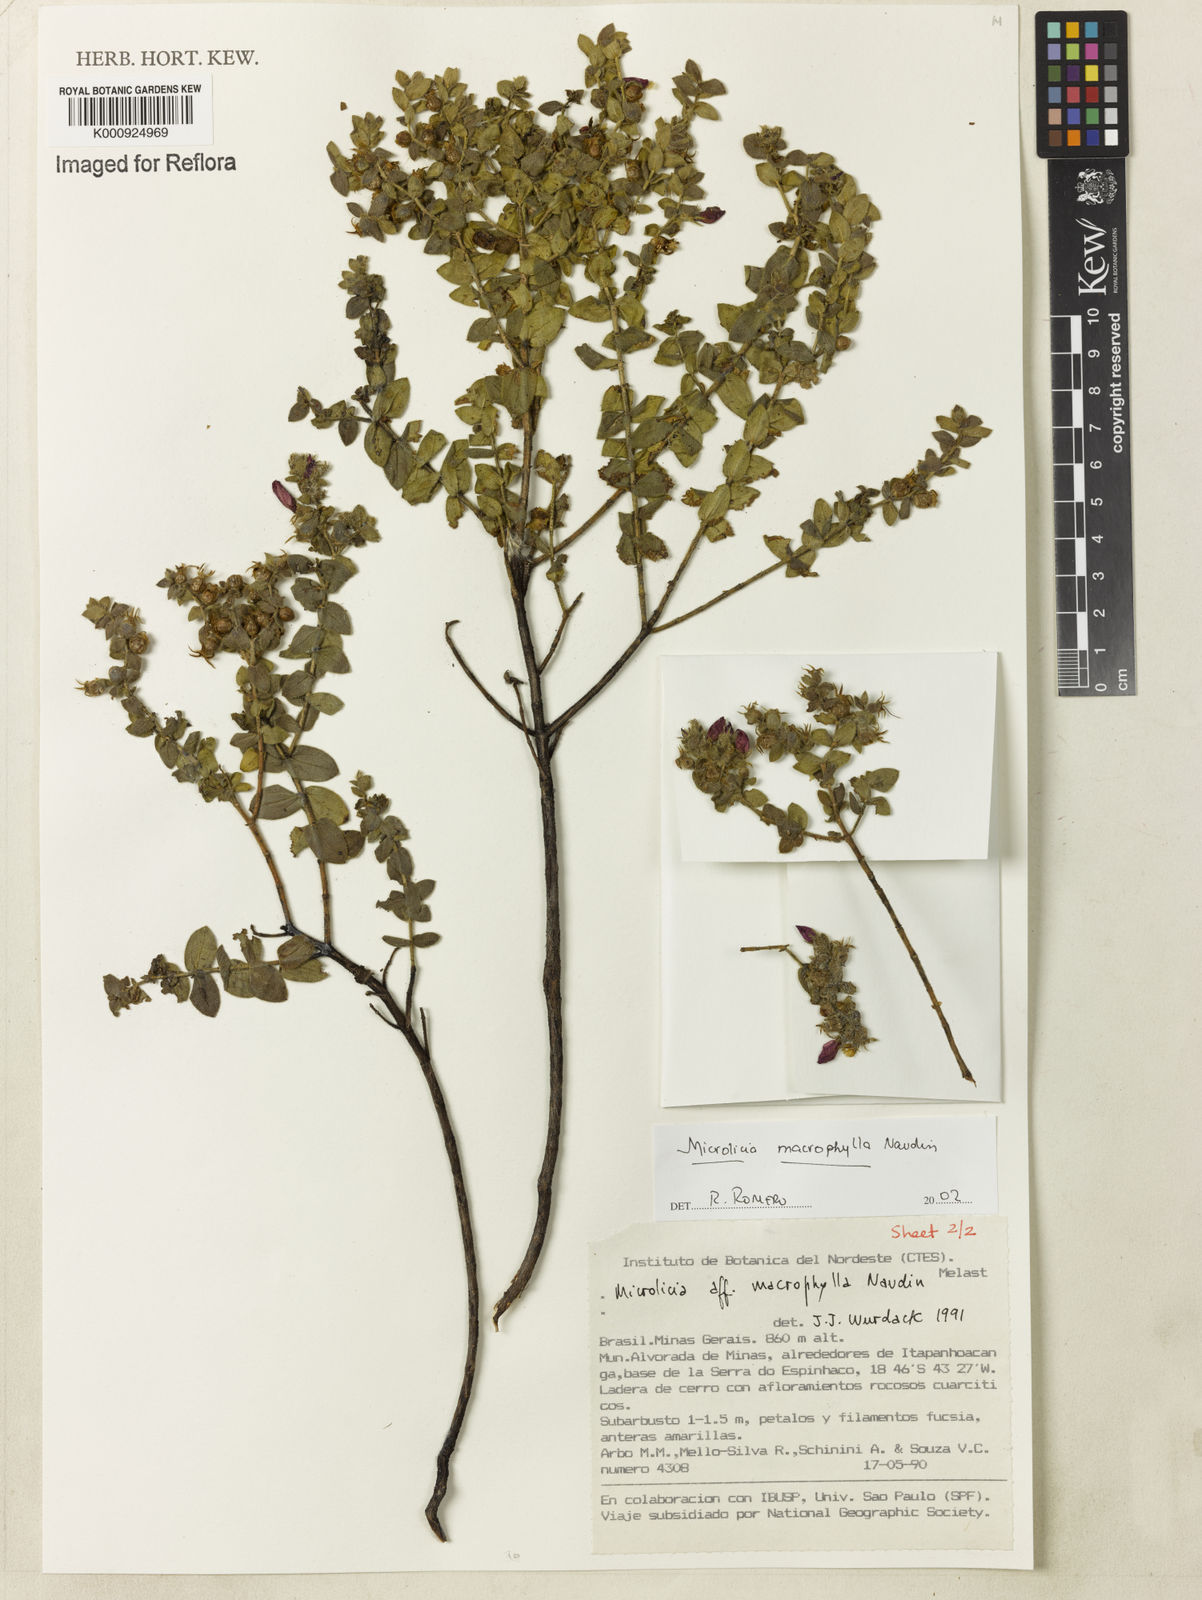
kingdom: Plantae
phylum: Tracheophyta
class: Magnoliopsida
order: Myrtales
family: Melastomataceae
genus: Microlicia
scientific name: Microlicia macrophylla
